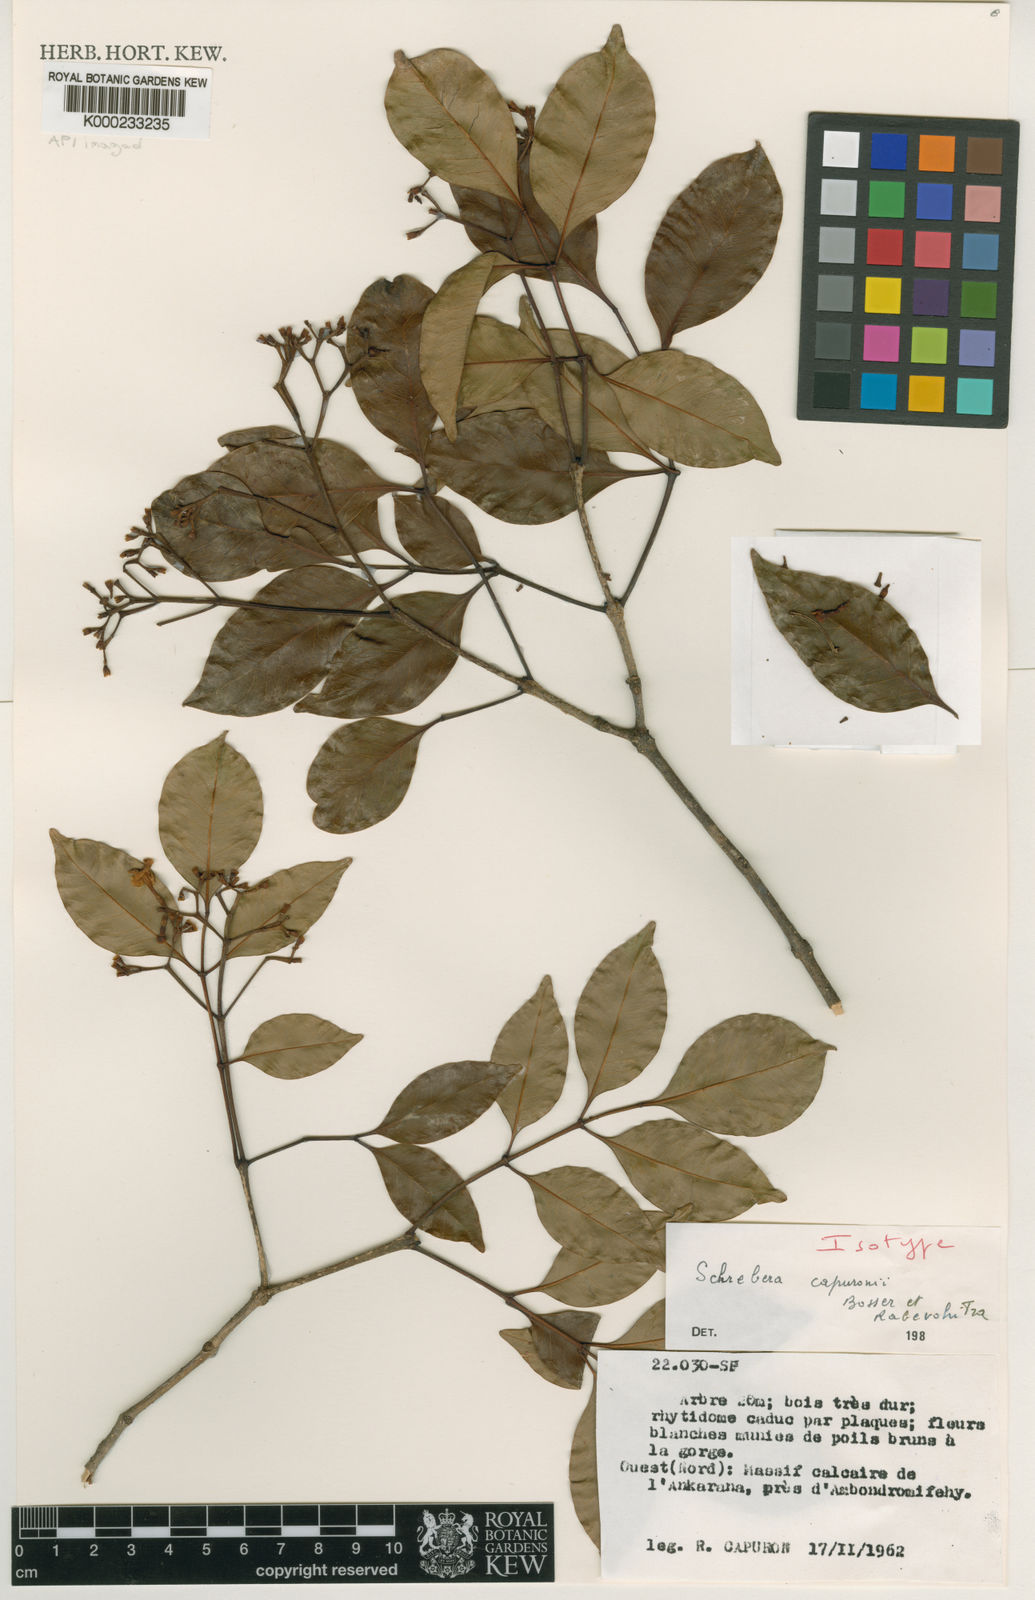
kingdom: Plantae
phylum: Tracheophyta
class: Magnoliopsida
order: Lamiales
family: Oleaceae
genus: Schrebera
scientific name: Schrebera capuronii
